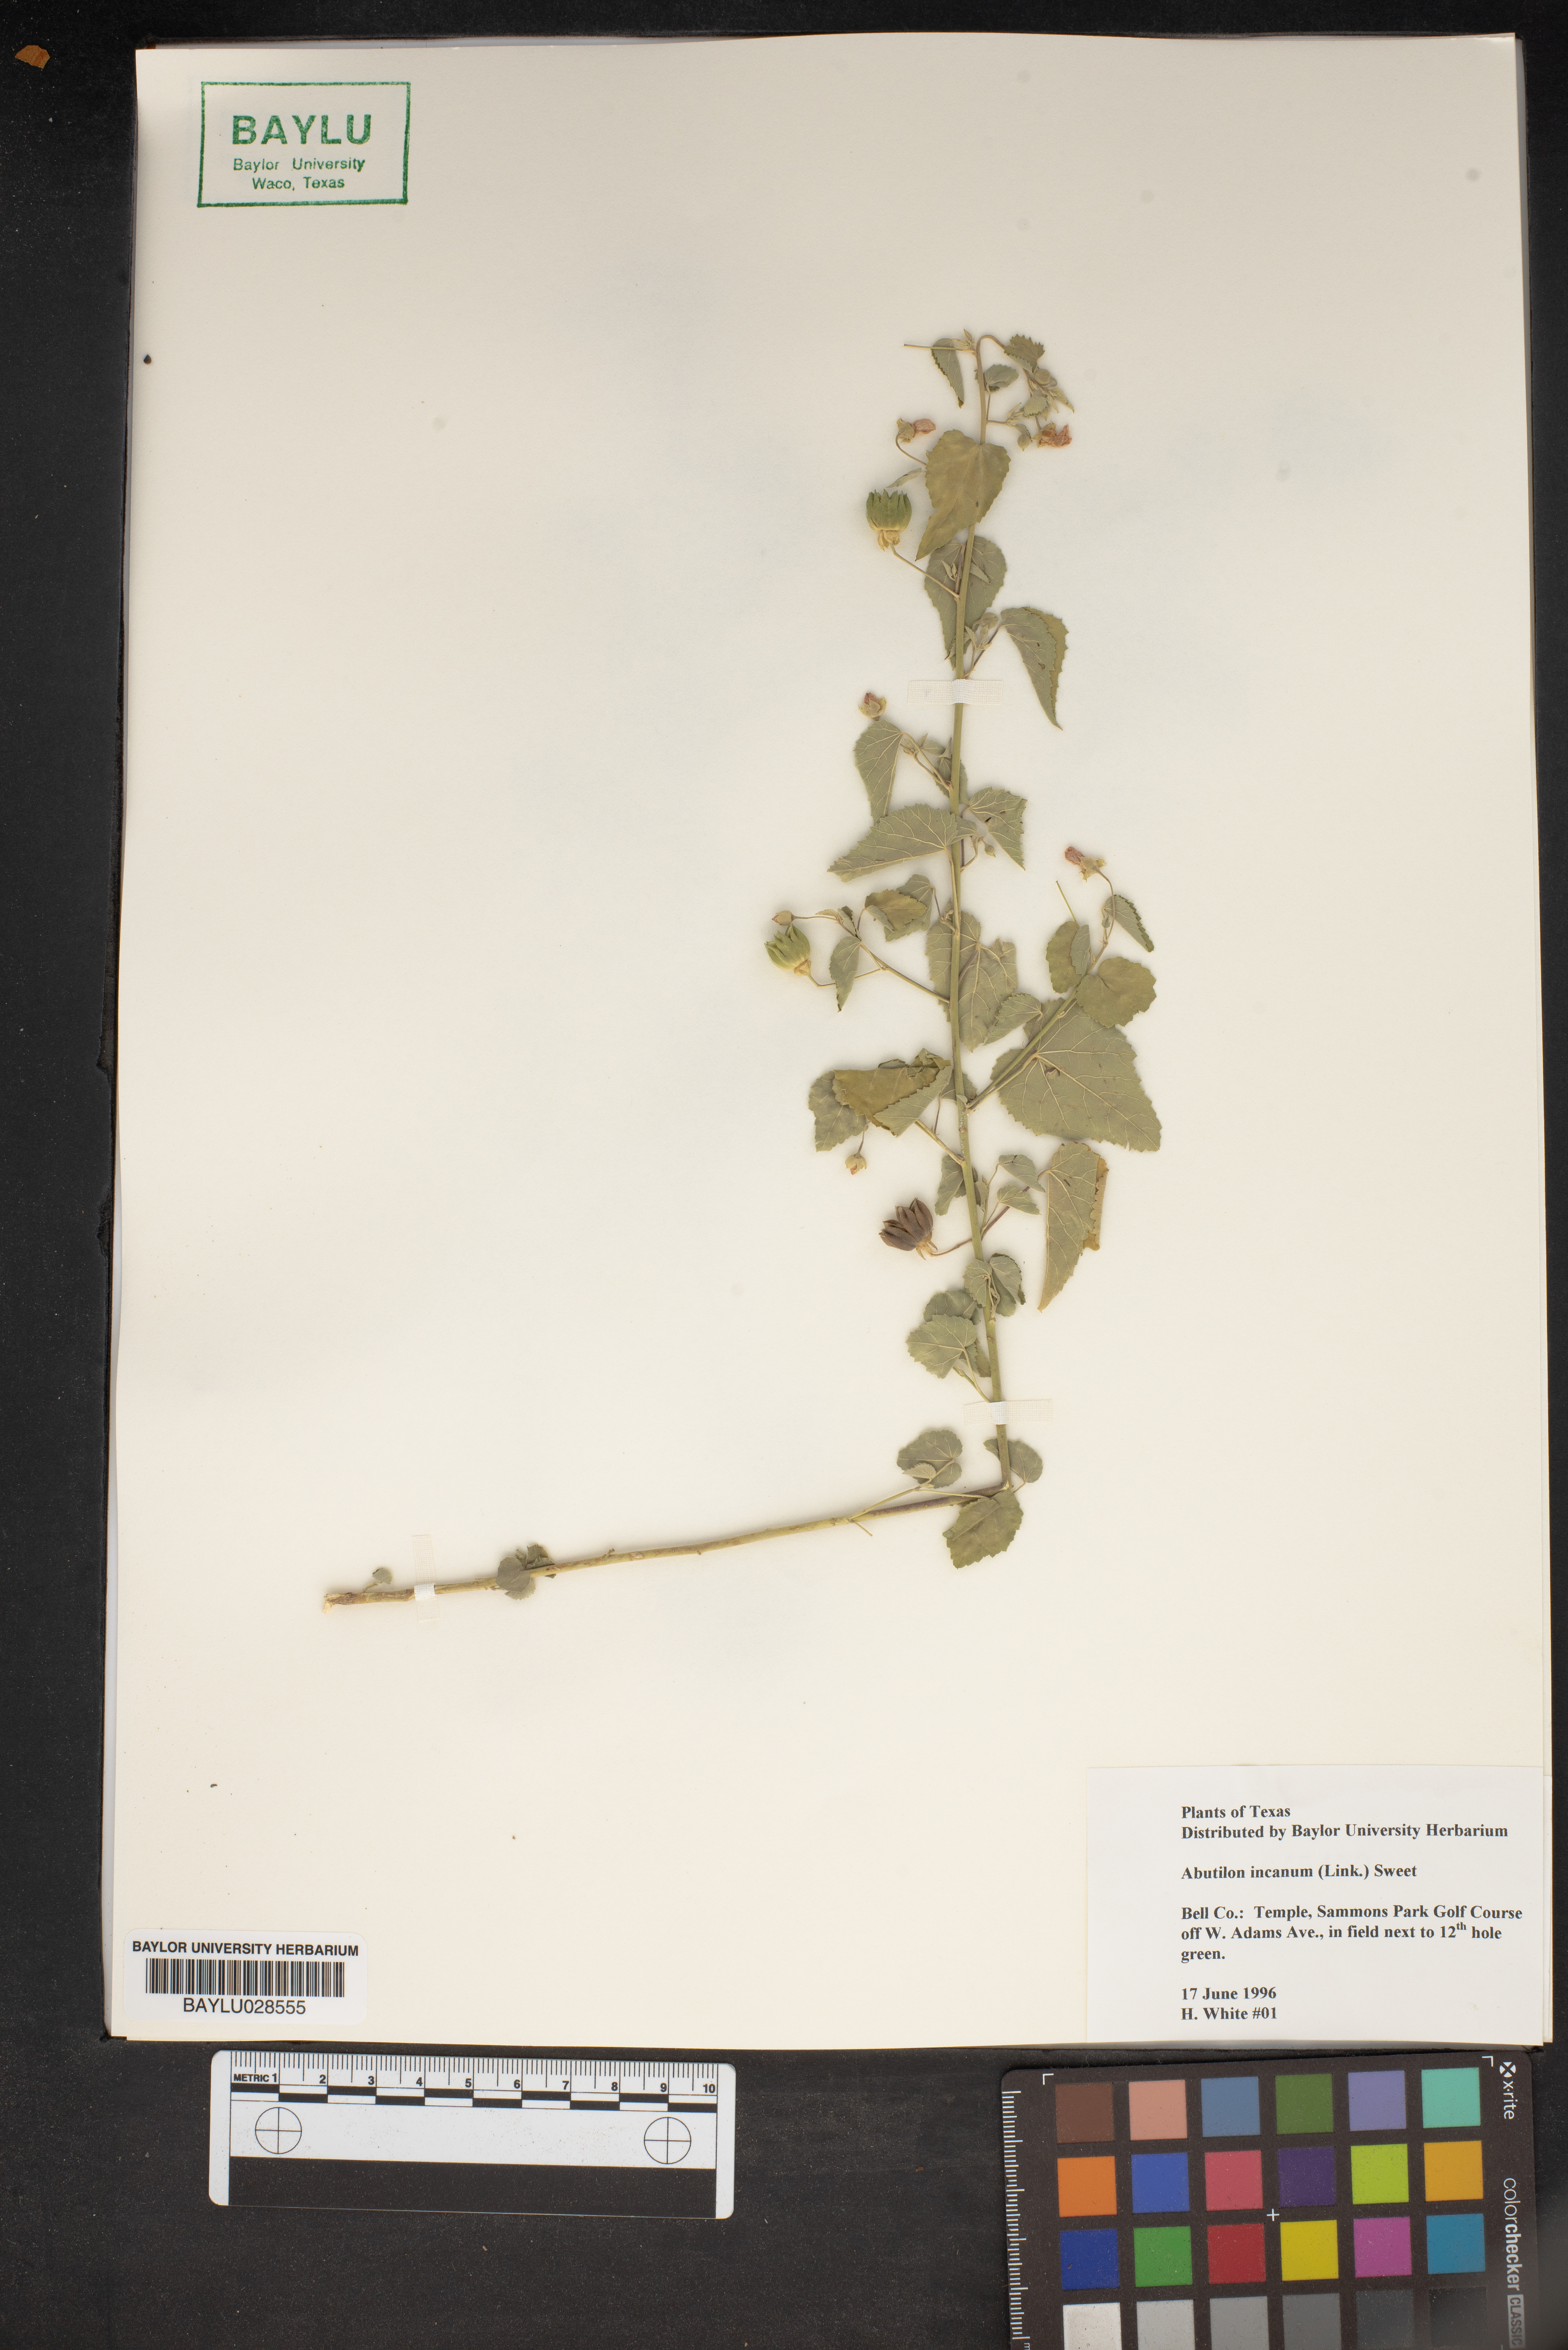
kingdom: Plantae
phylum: Tracheophyta
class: Magnoliopsida
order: Malvales
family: Malvaceae
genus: Abutilon
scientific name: Abutilon incanum
